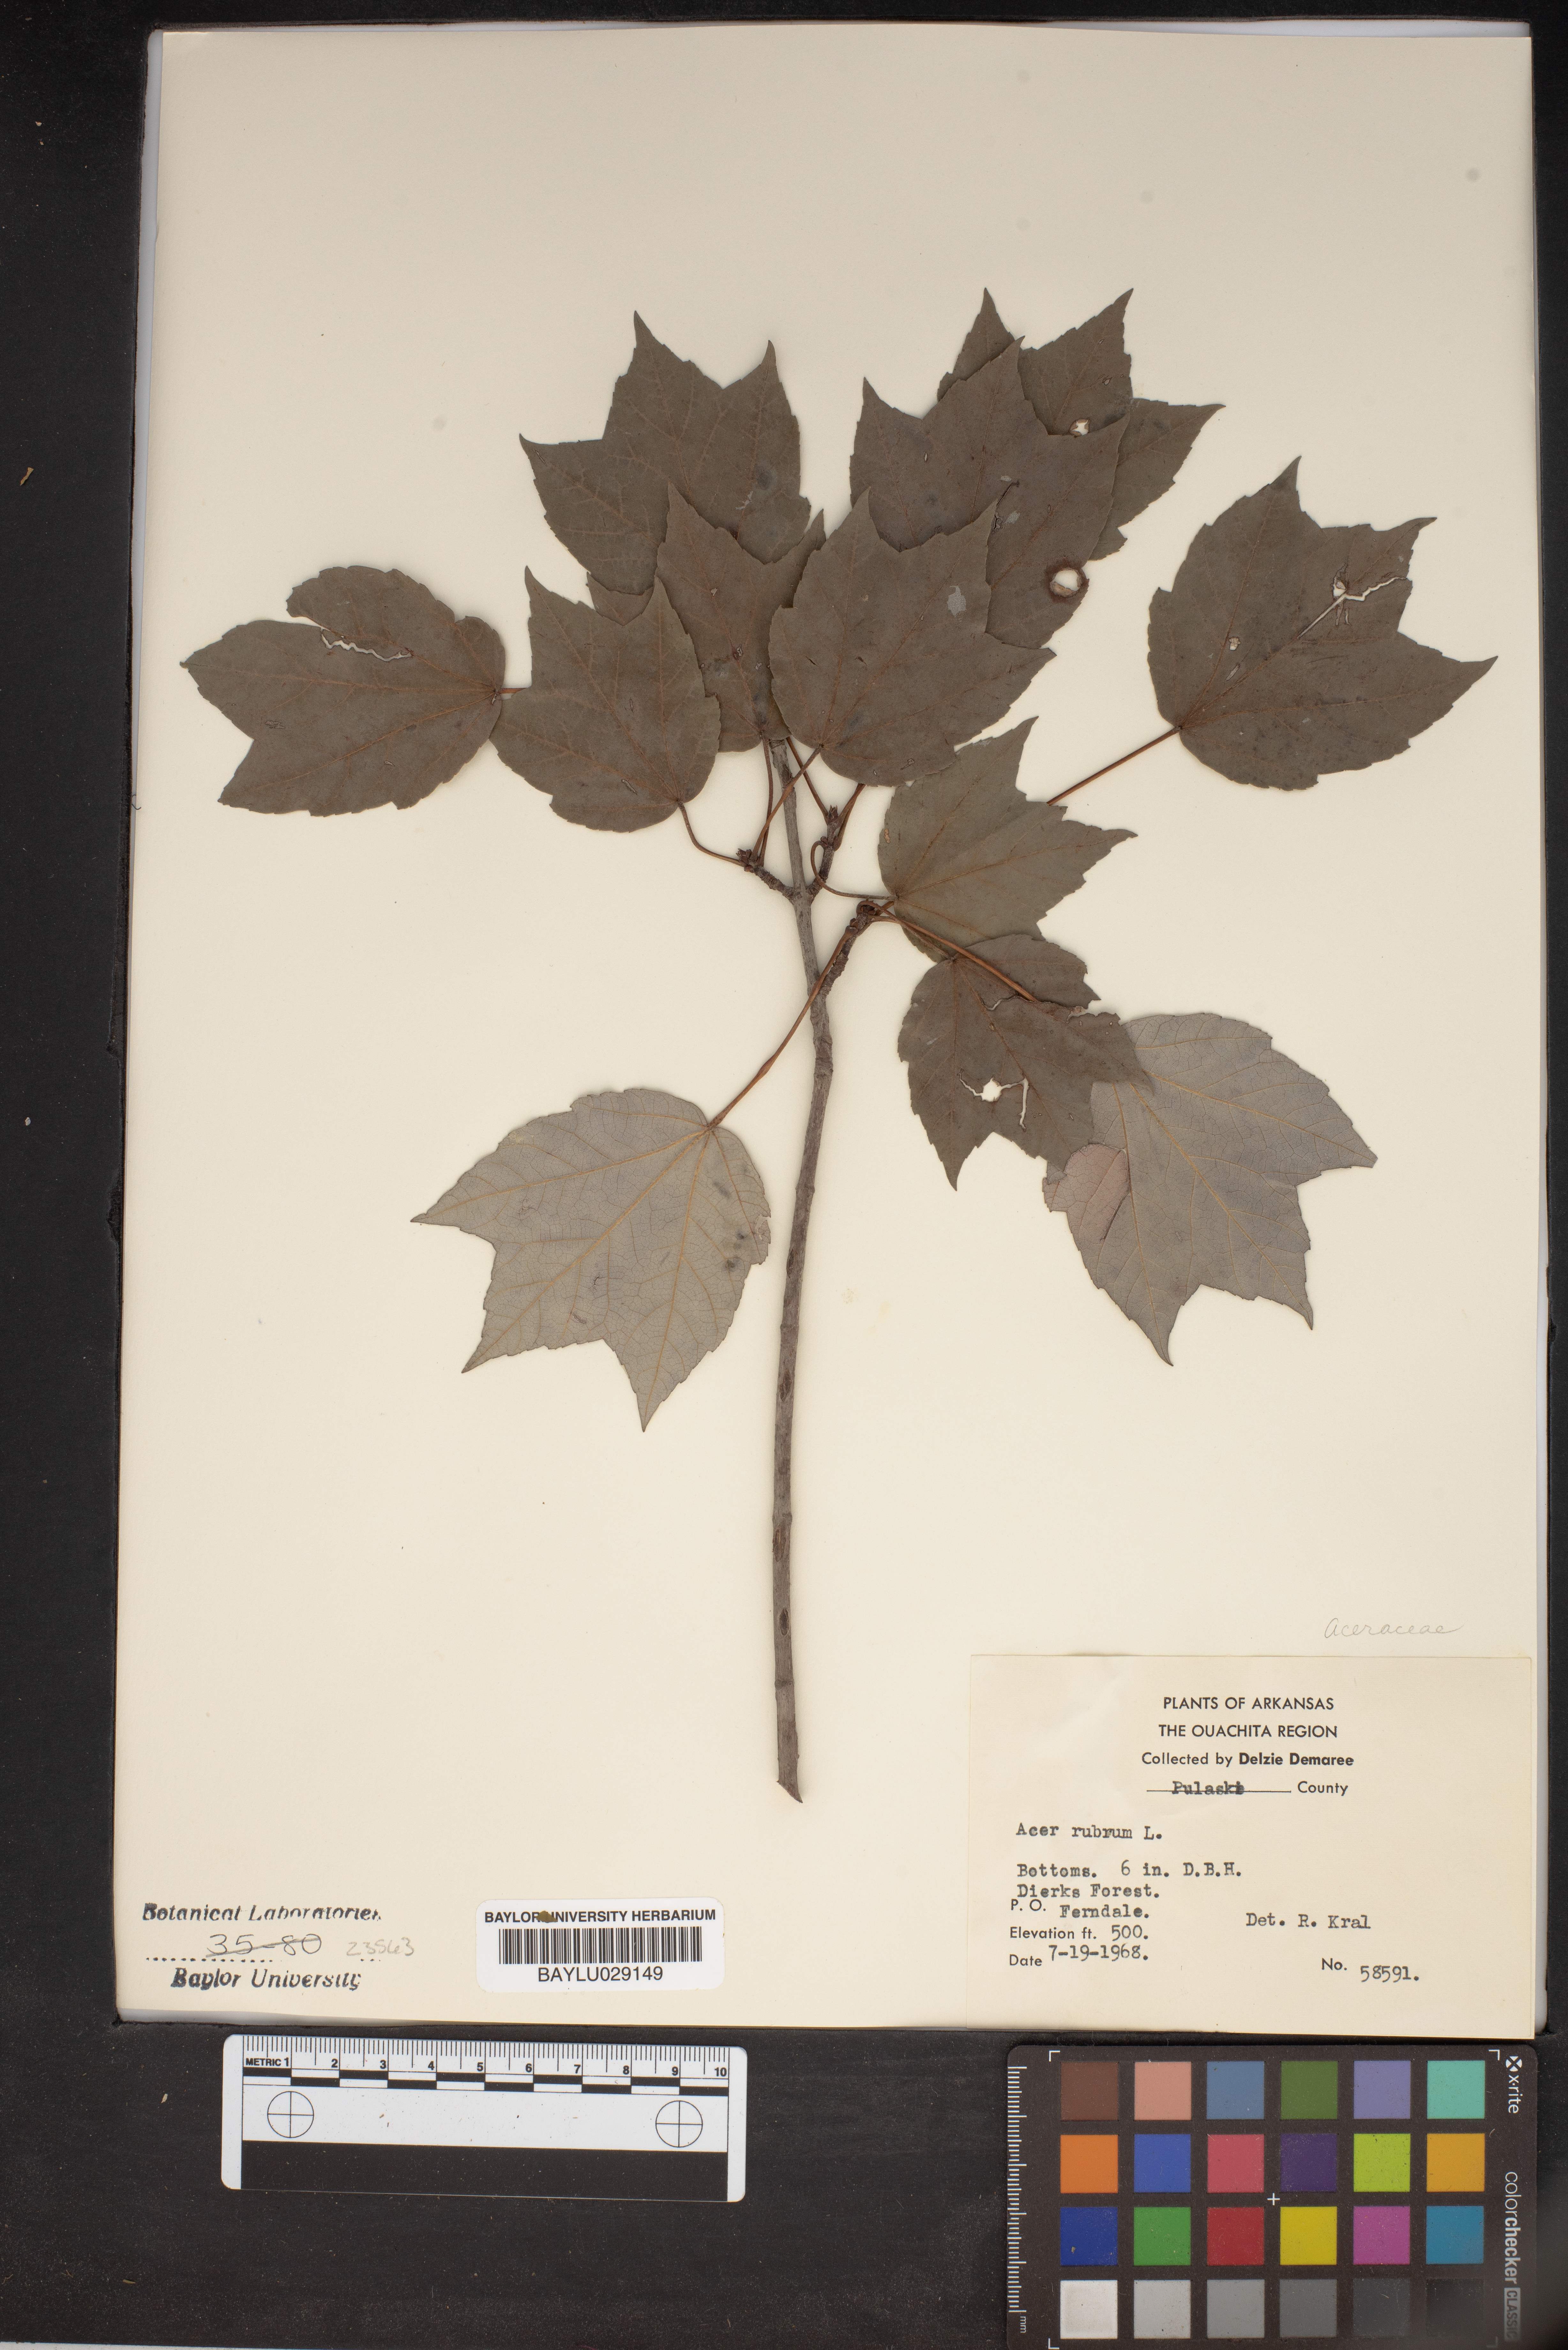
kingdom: Plantae
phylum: Tracheophyta
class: Magnoliopsida
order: Sapindales
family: Sapindaceae
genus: Acer
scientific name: Acer rubrum
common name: Red maple
